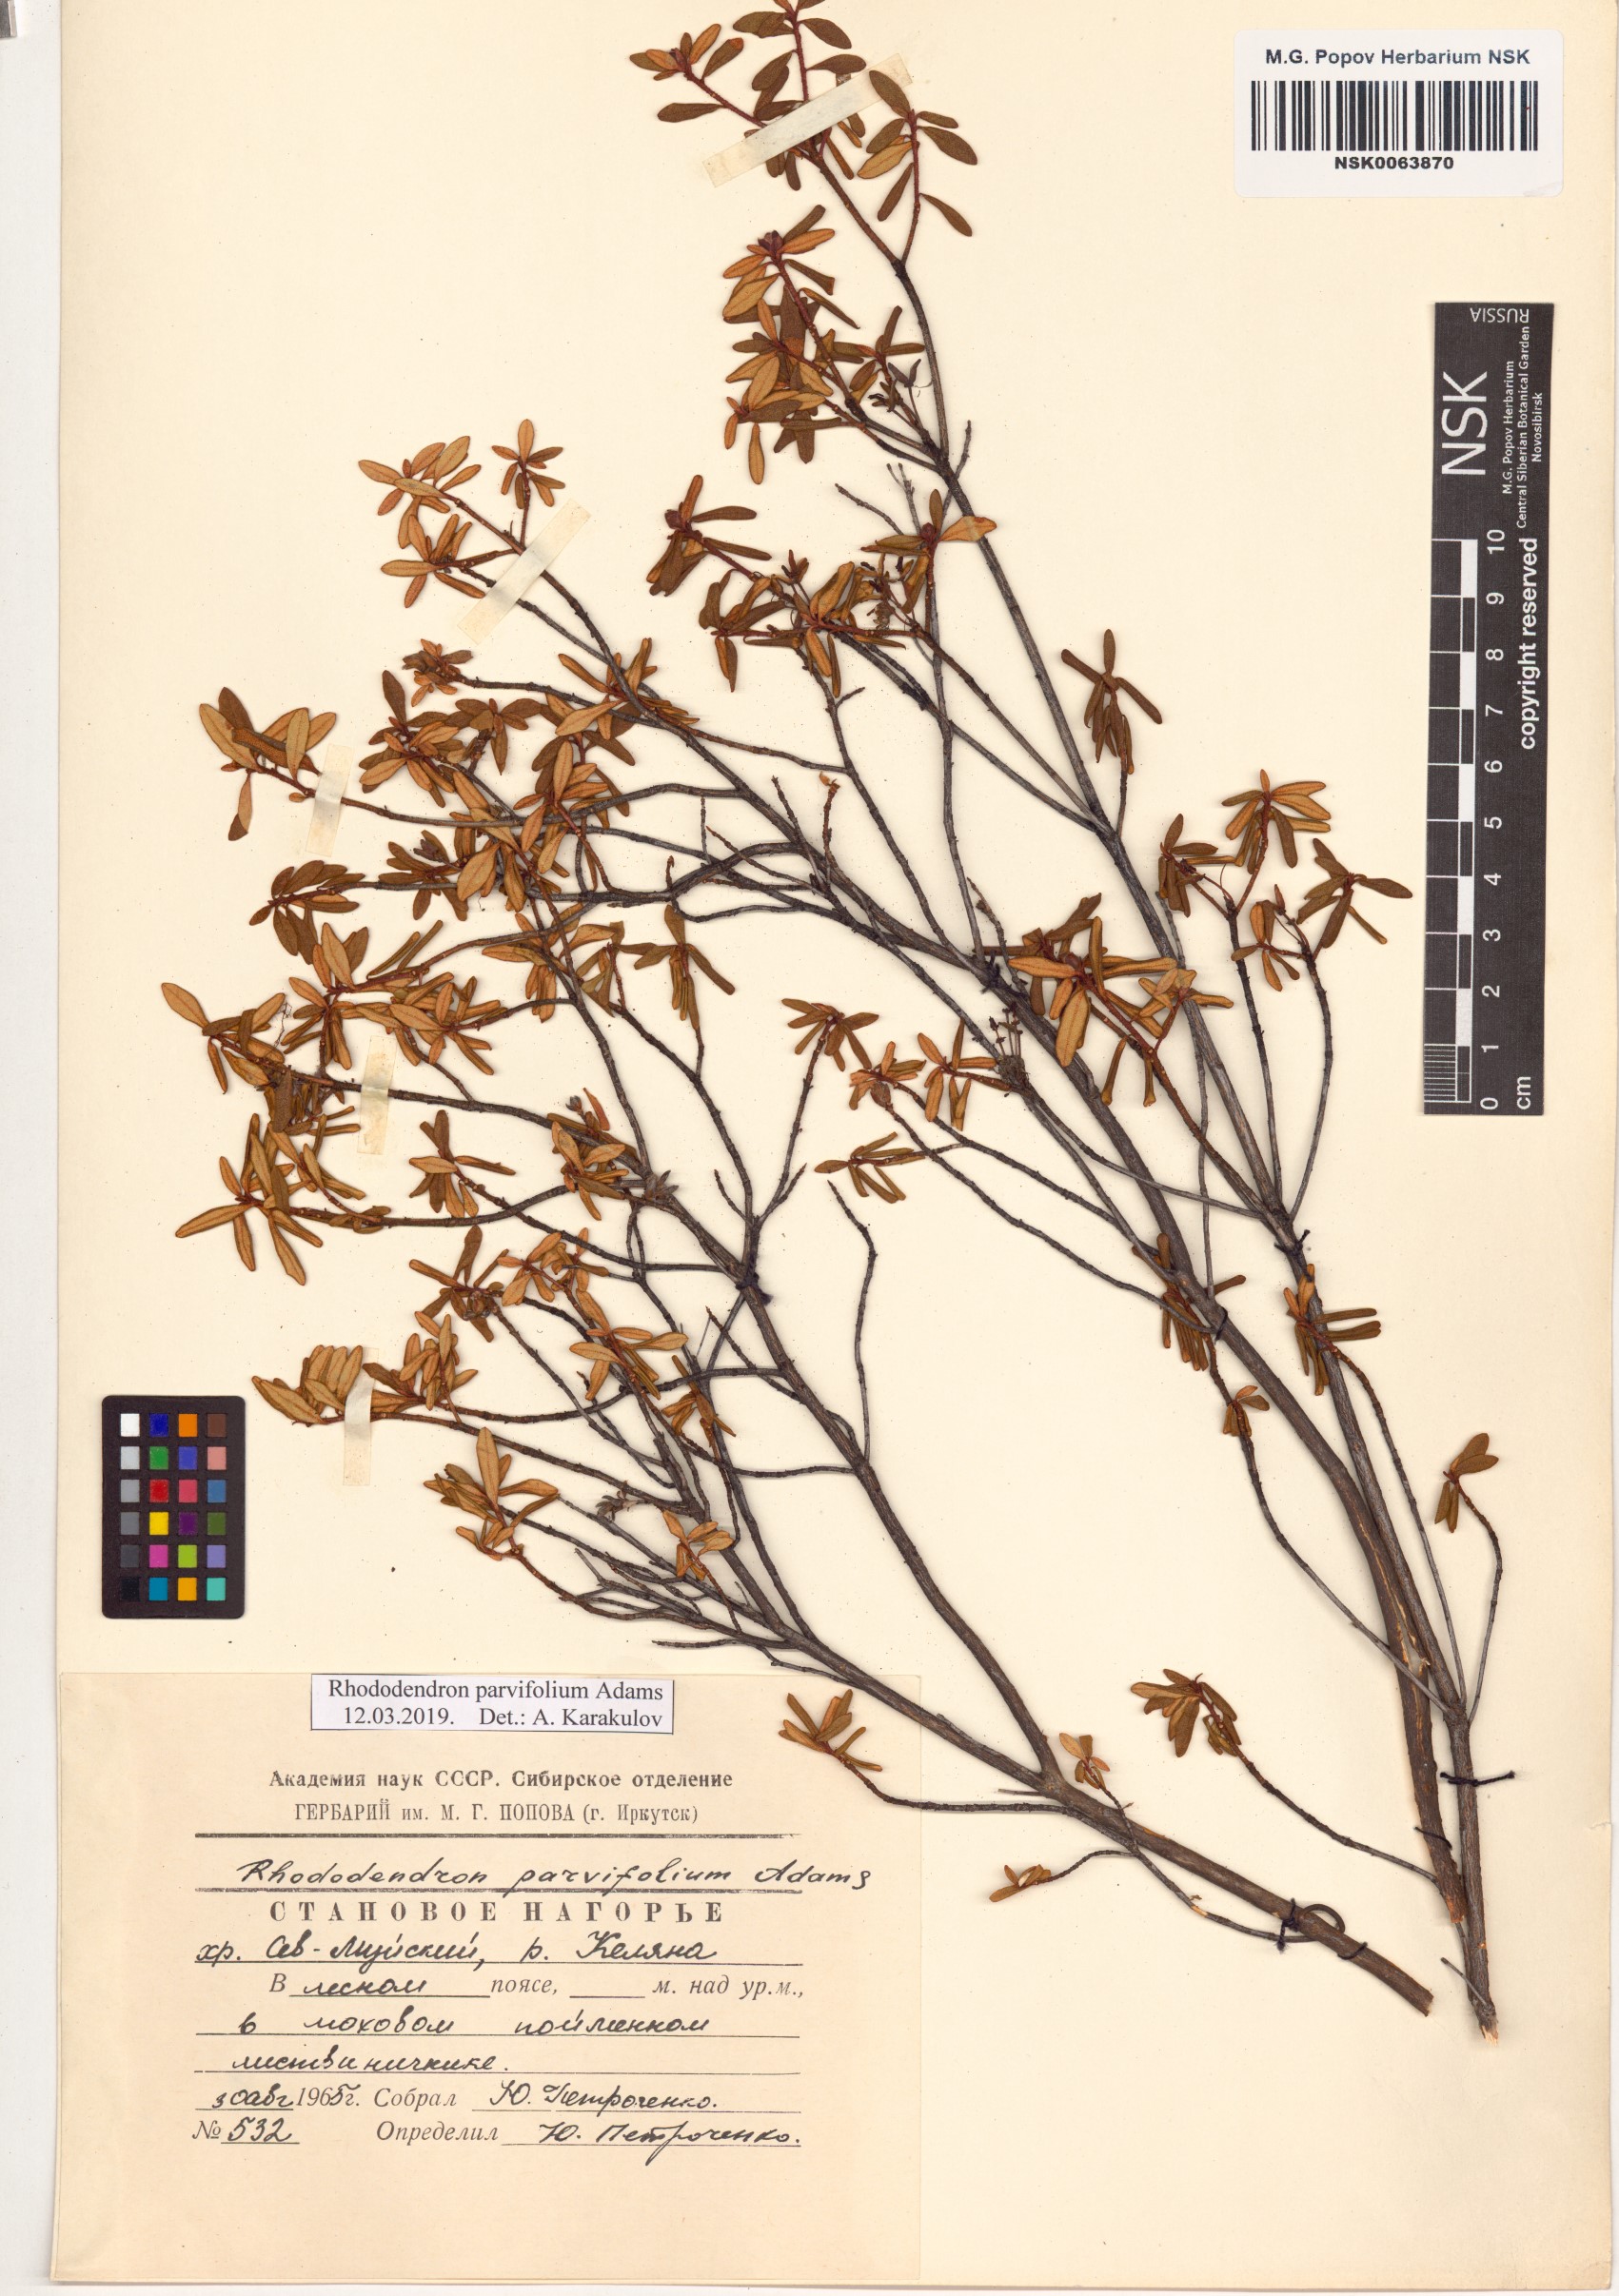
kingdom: Plantae
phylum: Tracheophyta
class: Magnoliopsida
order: Ericales
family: Ericaceae
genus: Rhododendron
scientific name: Rhododendron parvifolium
